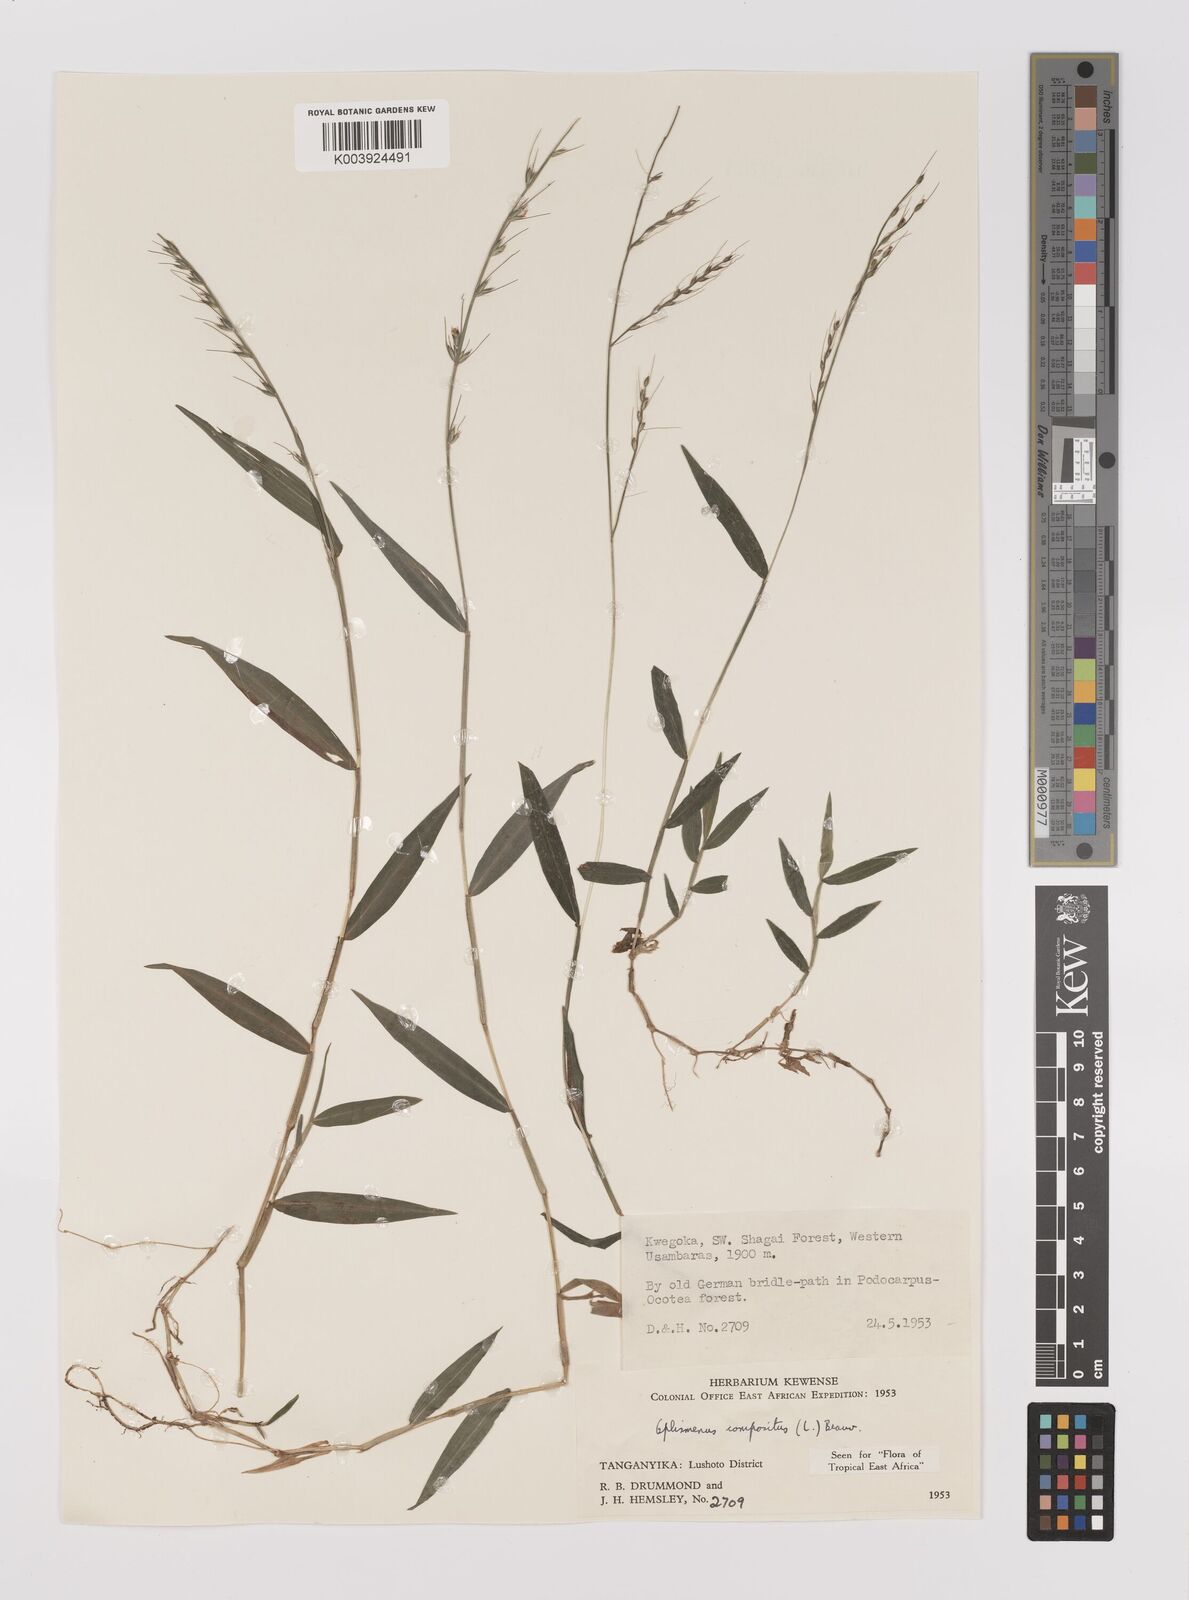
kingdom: Plantae
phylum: Tracheophyta
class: Liliopsida
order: Poales
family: Poaceae
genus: Oplismenus
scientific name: Oplismenus compositus
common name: Running mountain grass
